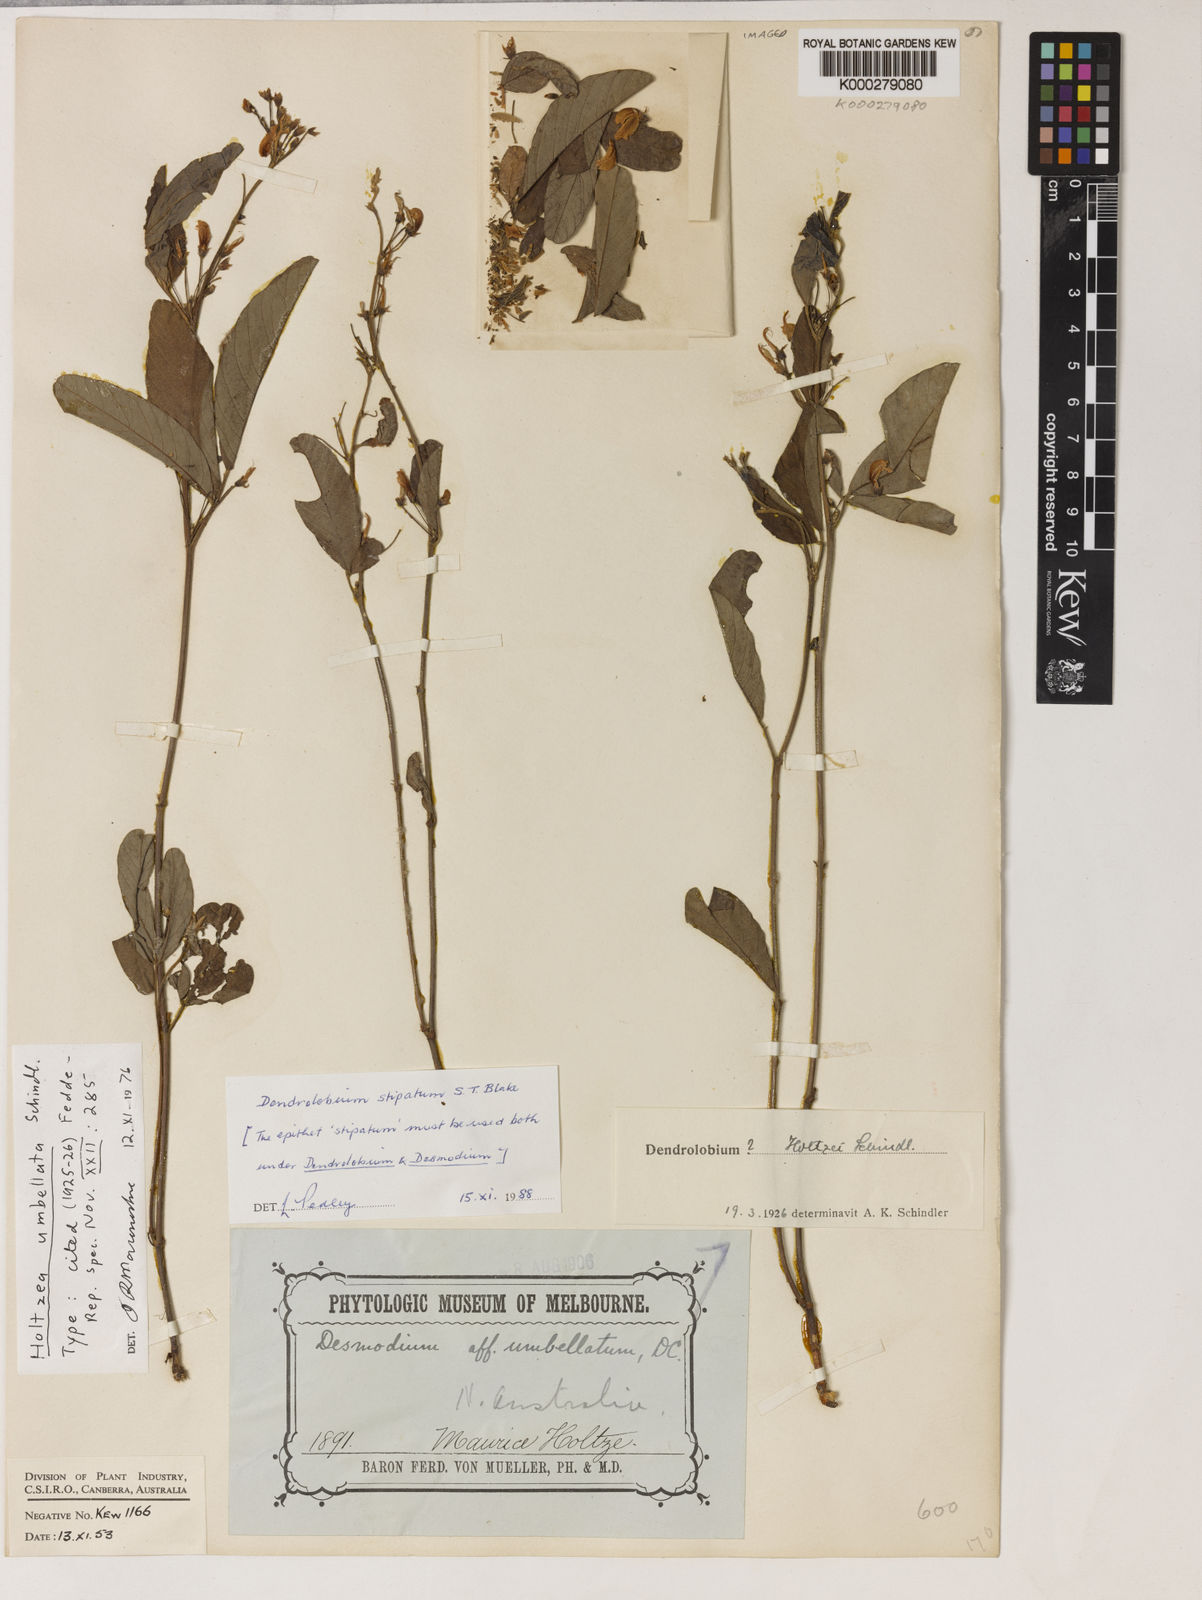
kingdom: Plantae
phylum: Tracheophyta
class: Magnoliopsida
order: Fabales
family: Fabaceae
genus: Desmodium
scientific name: Desmodium
